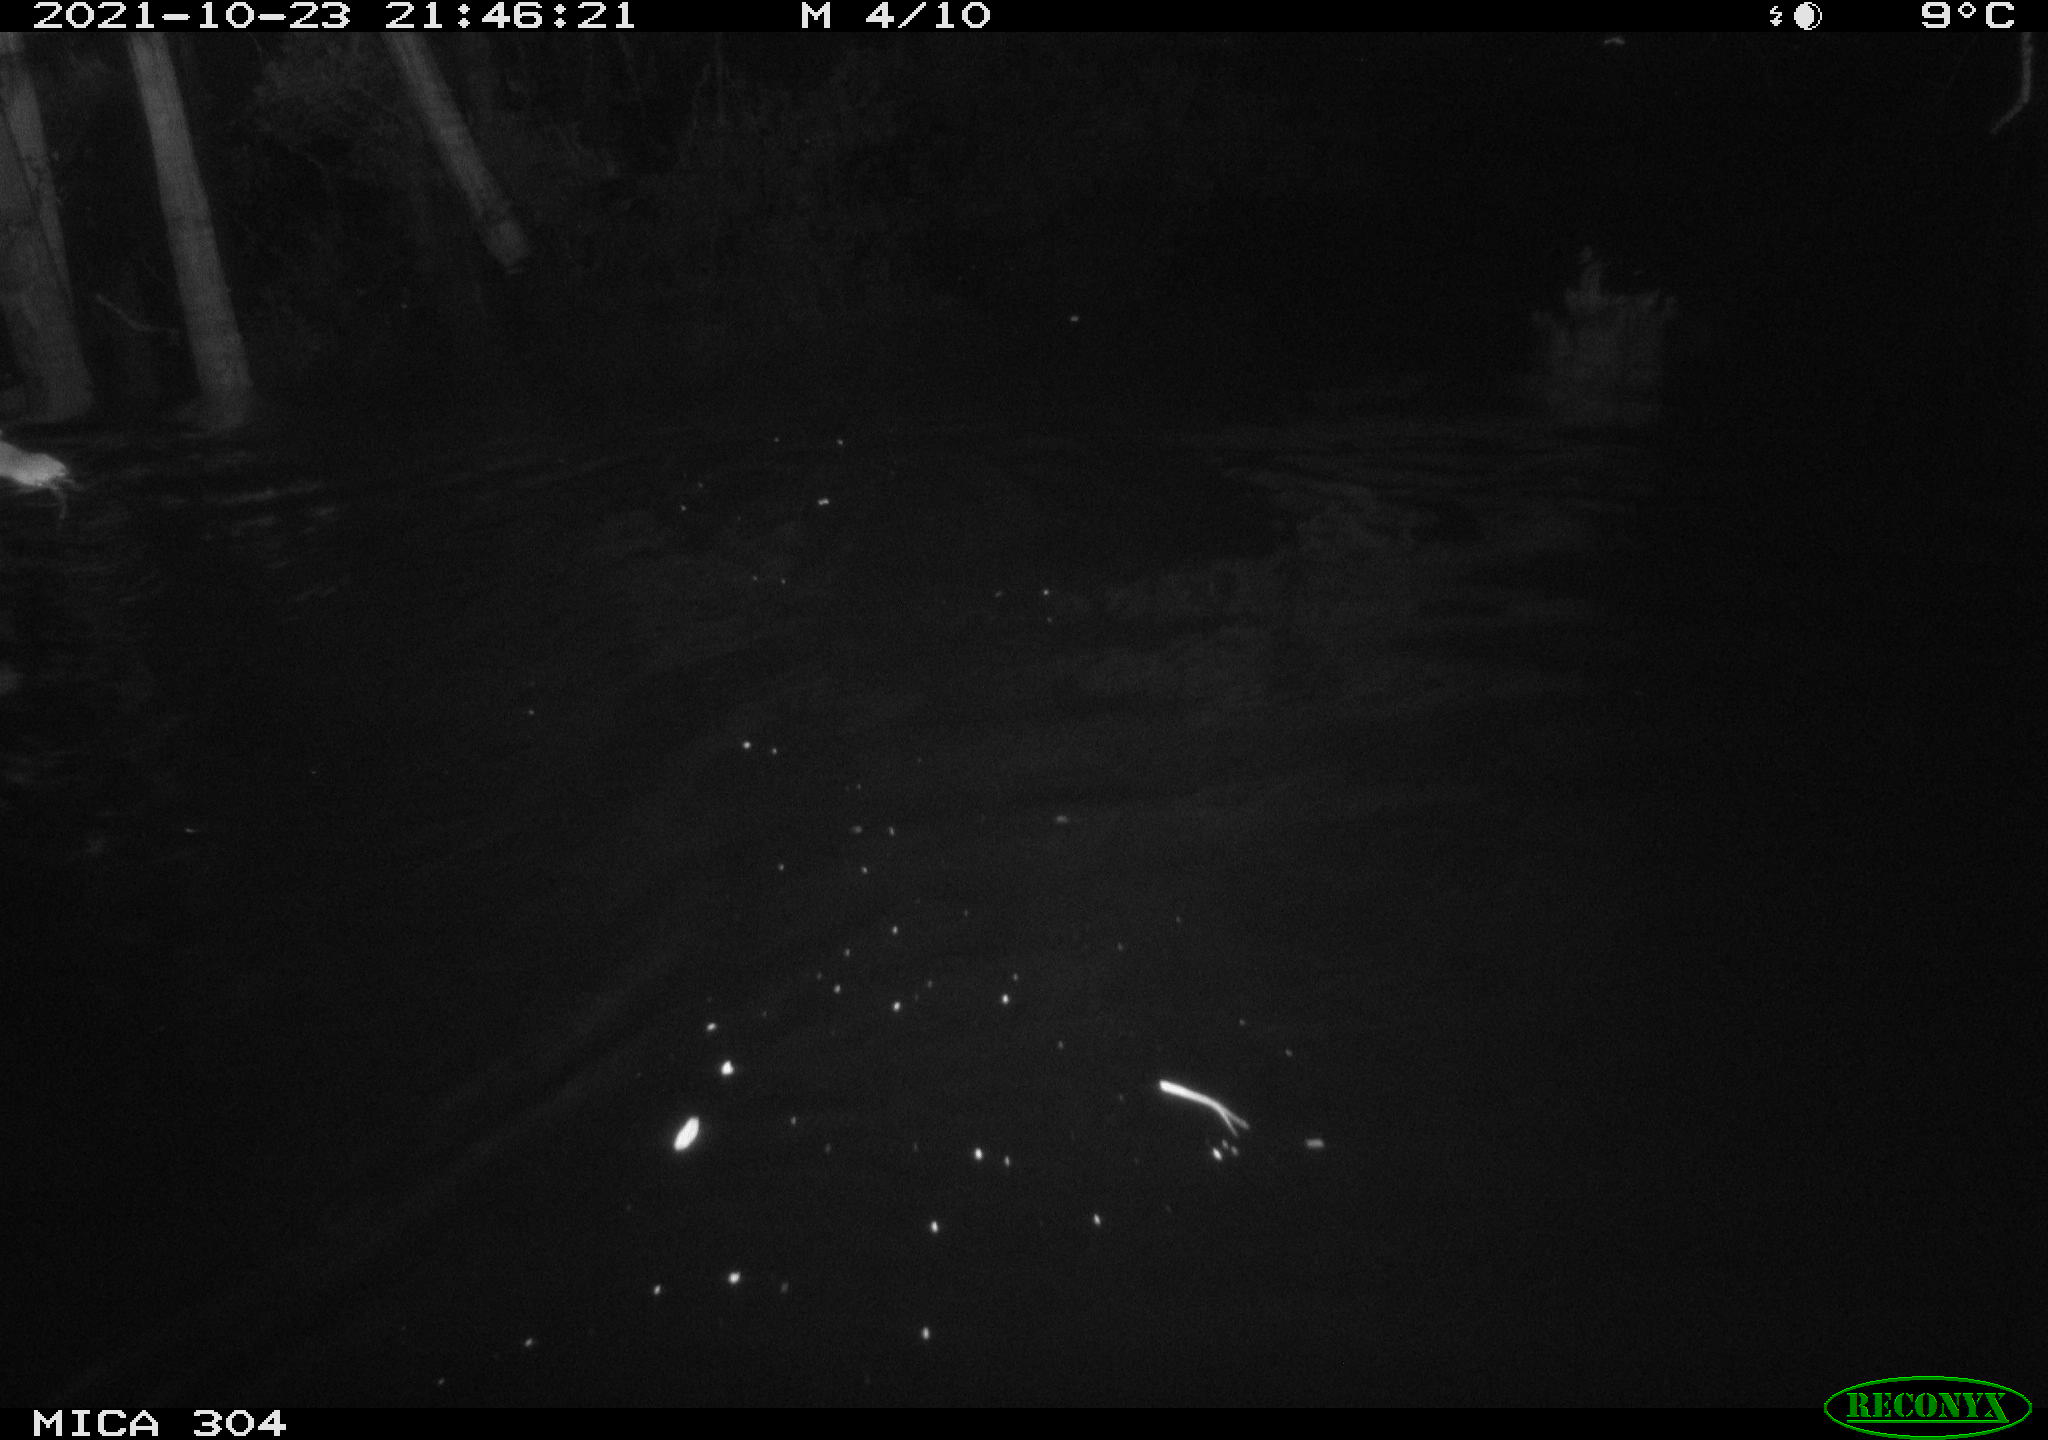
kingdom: Animalia
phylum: Chordata
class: Mammalia
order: Rodentia
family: Muridae
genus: Rattus
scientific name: Rattus norvegicus
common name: Brown rat
